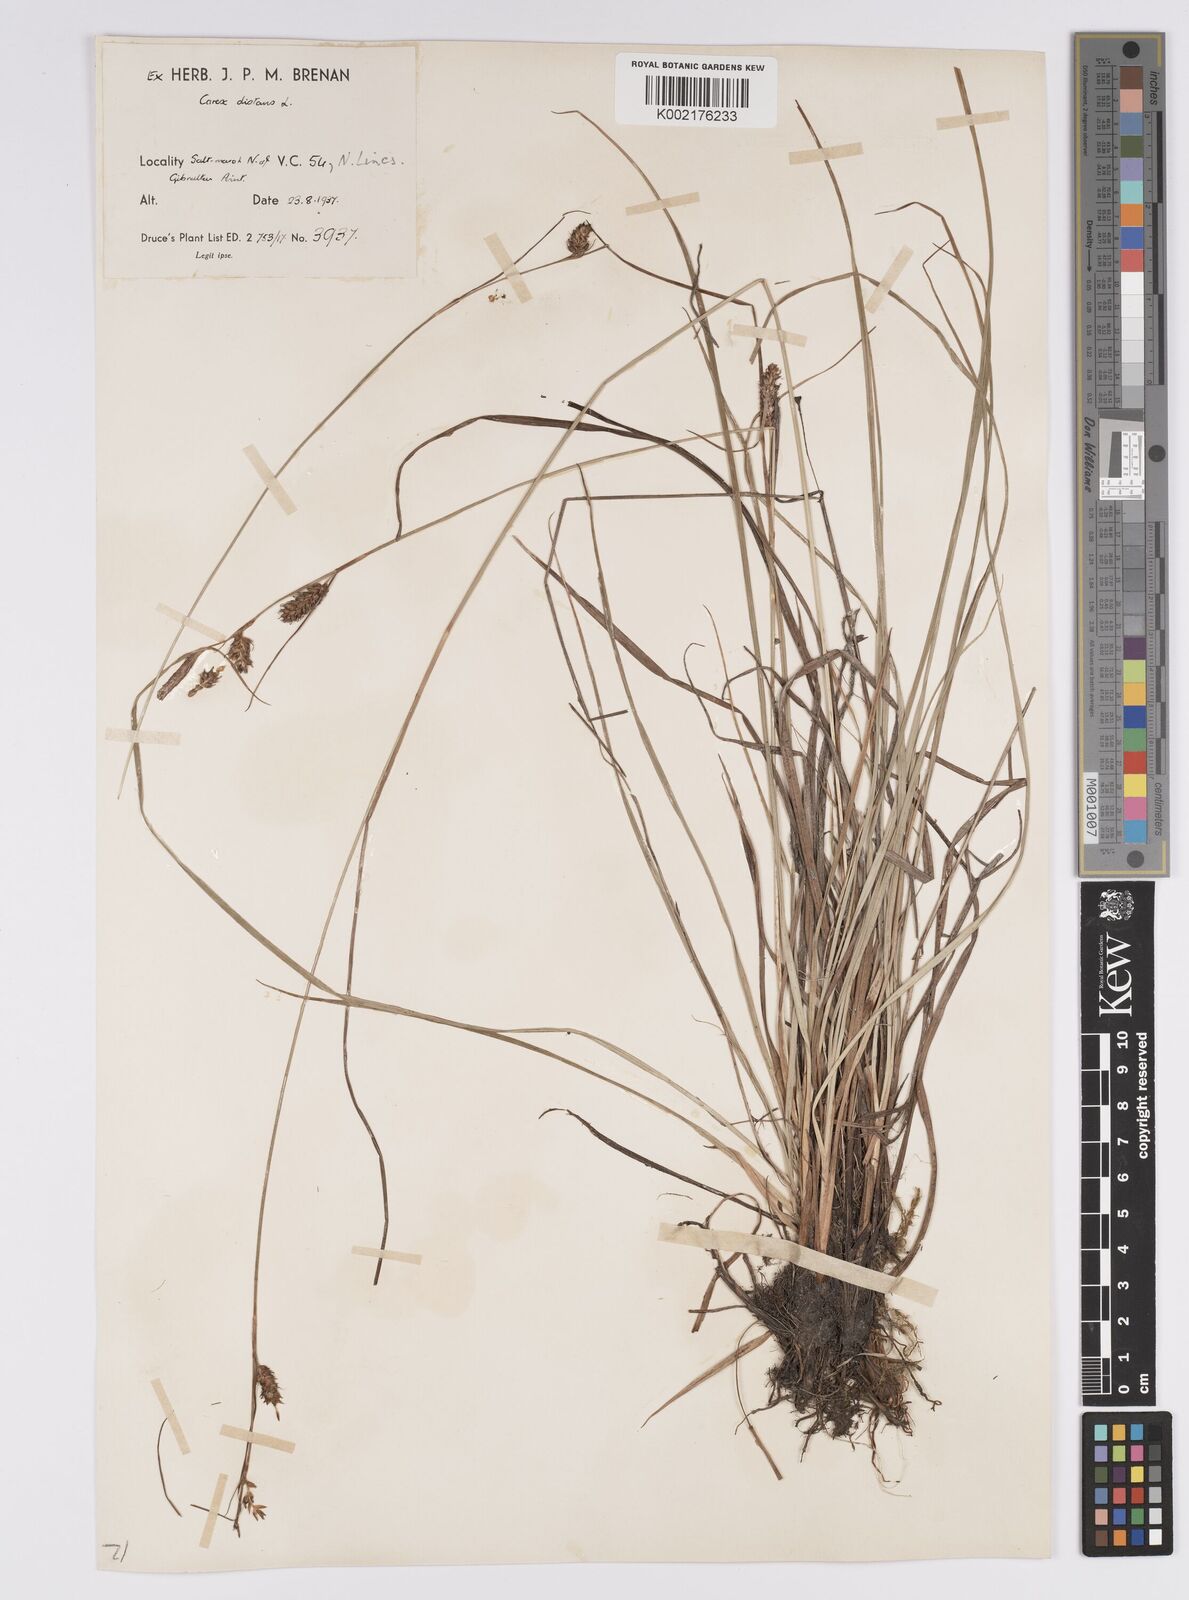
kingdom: Plantae
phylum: Tracheophyta
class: Liliopsida
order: Poales
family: Cyperaceae
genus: Carex
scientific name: Carex distans
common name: Distant sedge
